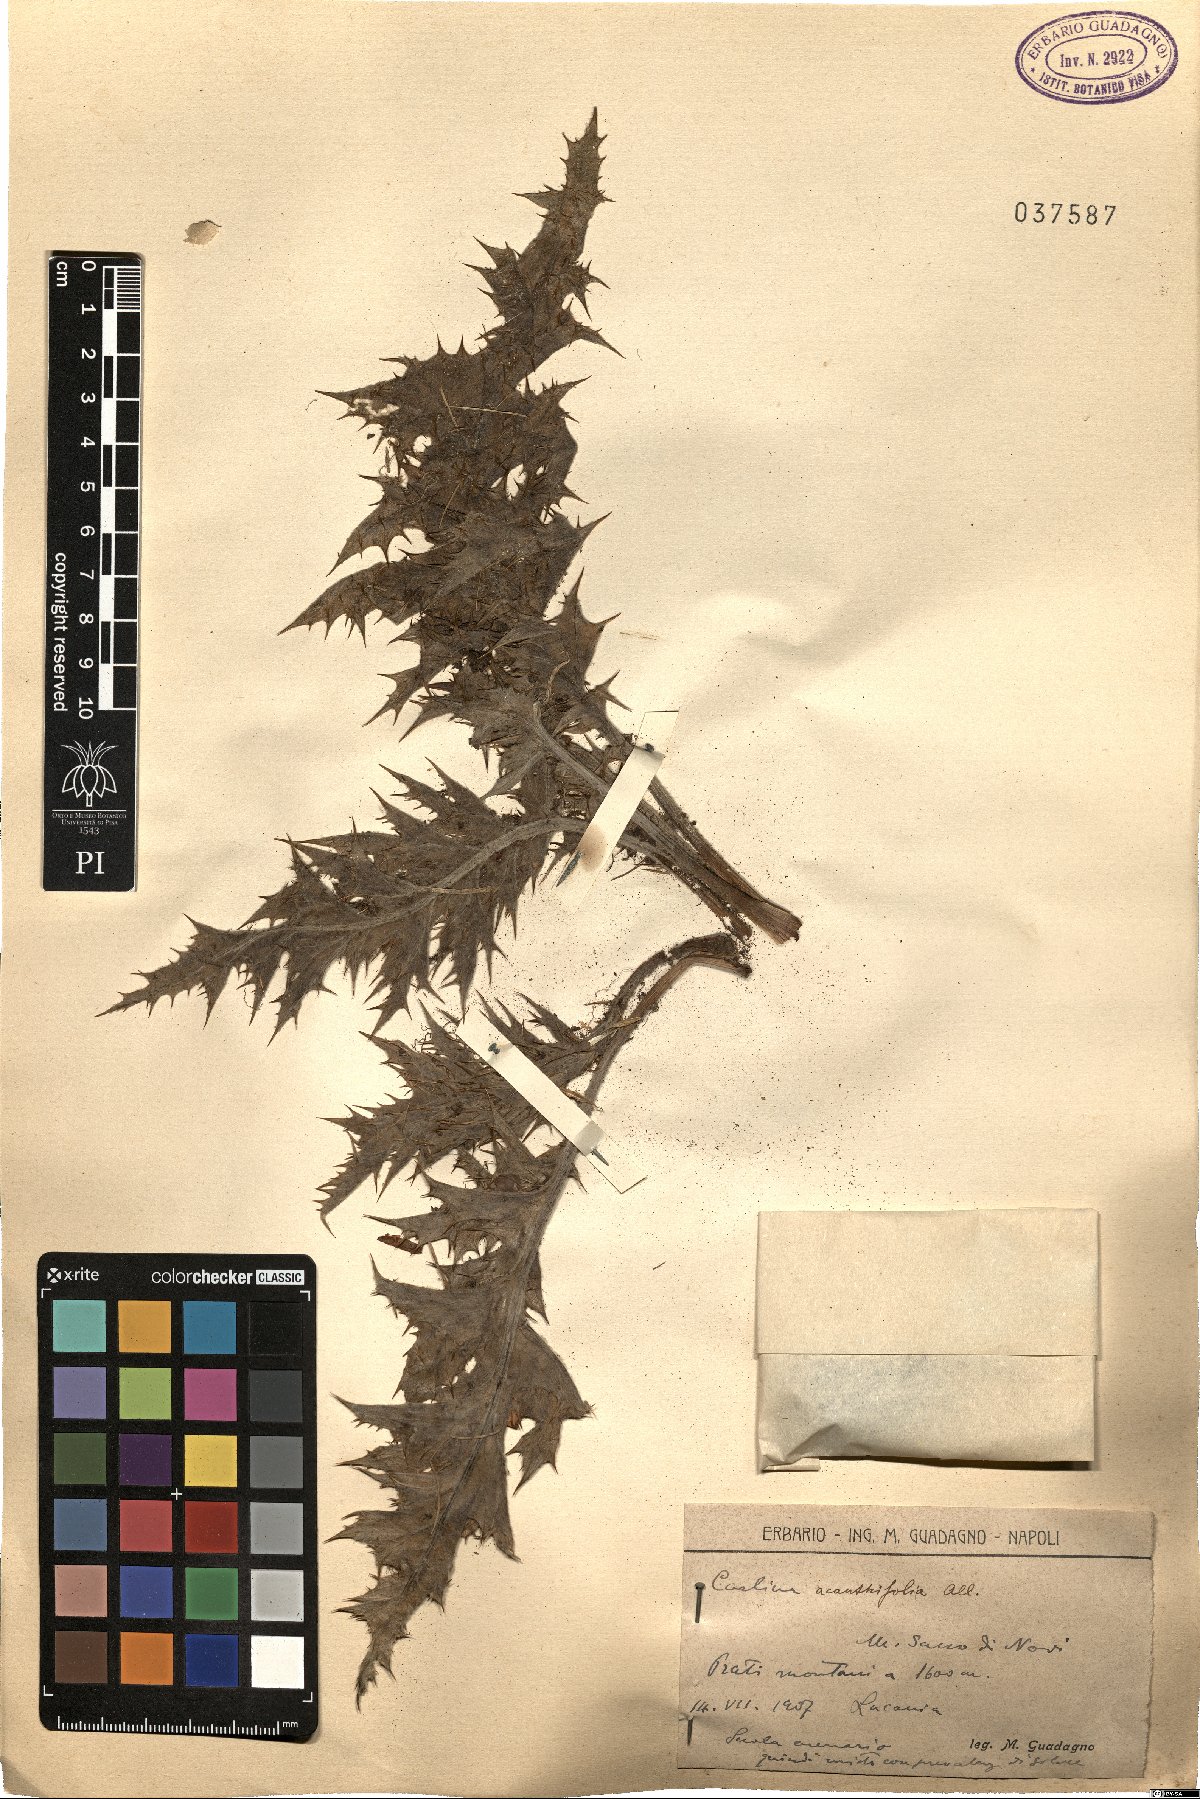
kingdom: Plantae
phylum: Tracheophyta
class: Magnoliopsida
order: Asterales
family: Asteraceae
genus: Carlina
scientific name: Carlina acanthifolia
